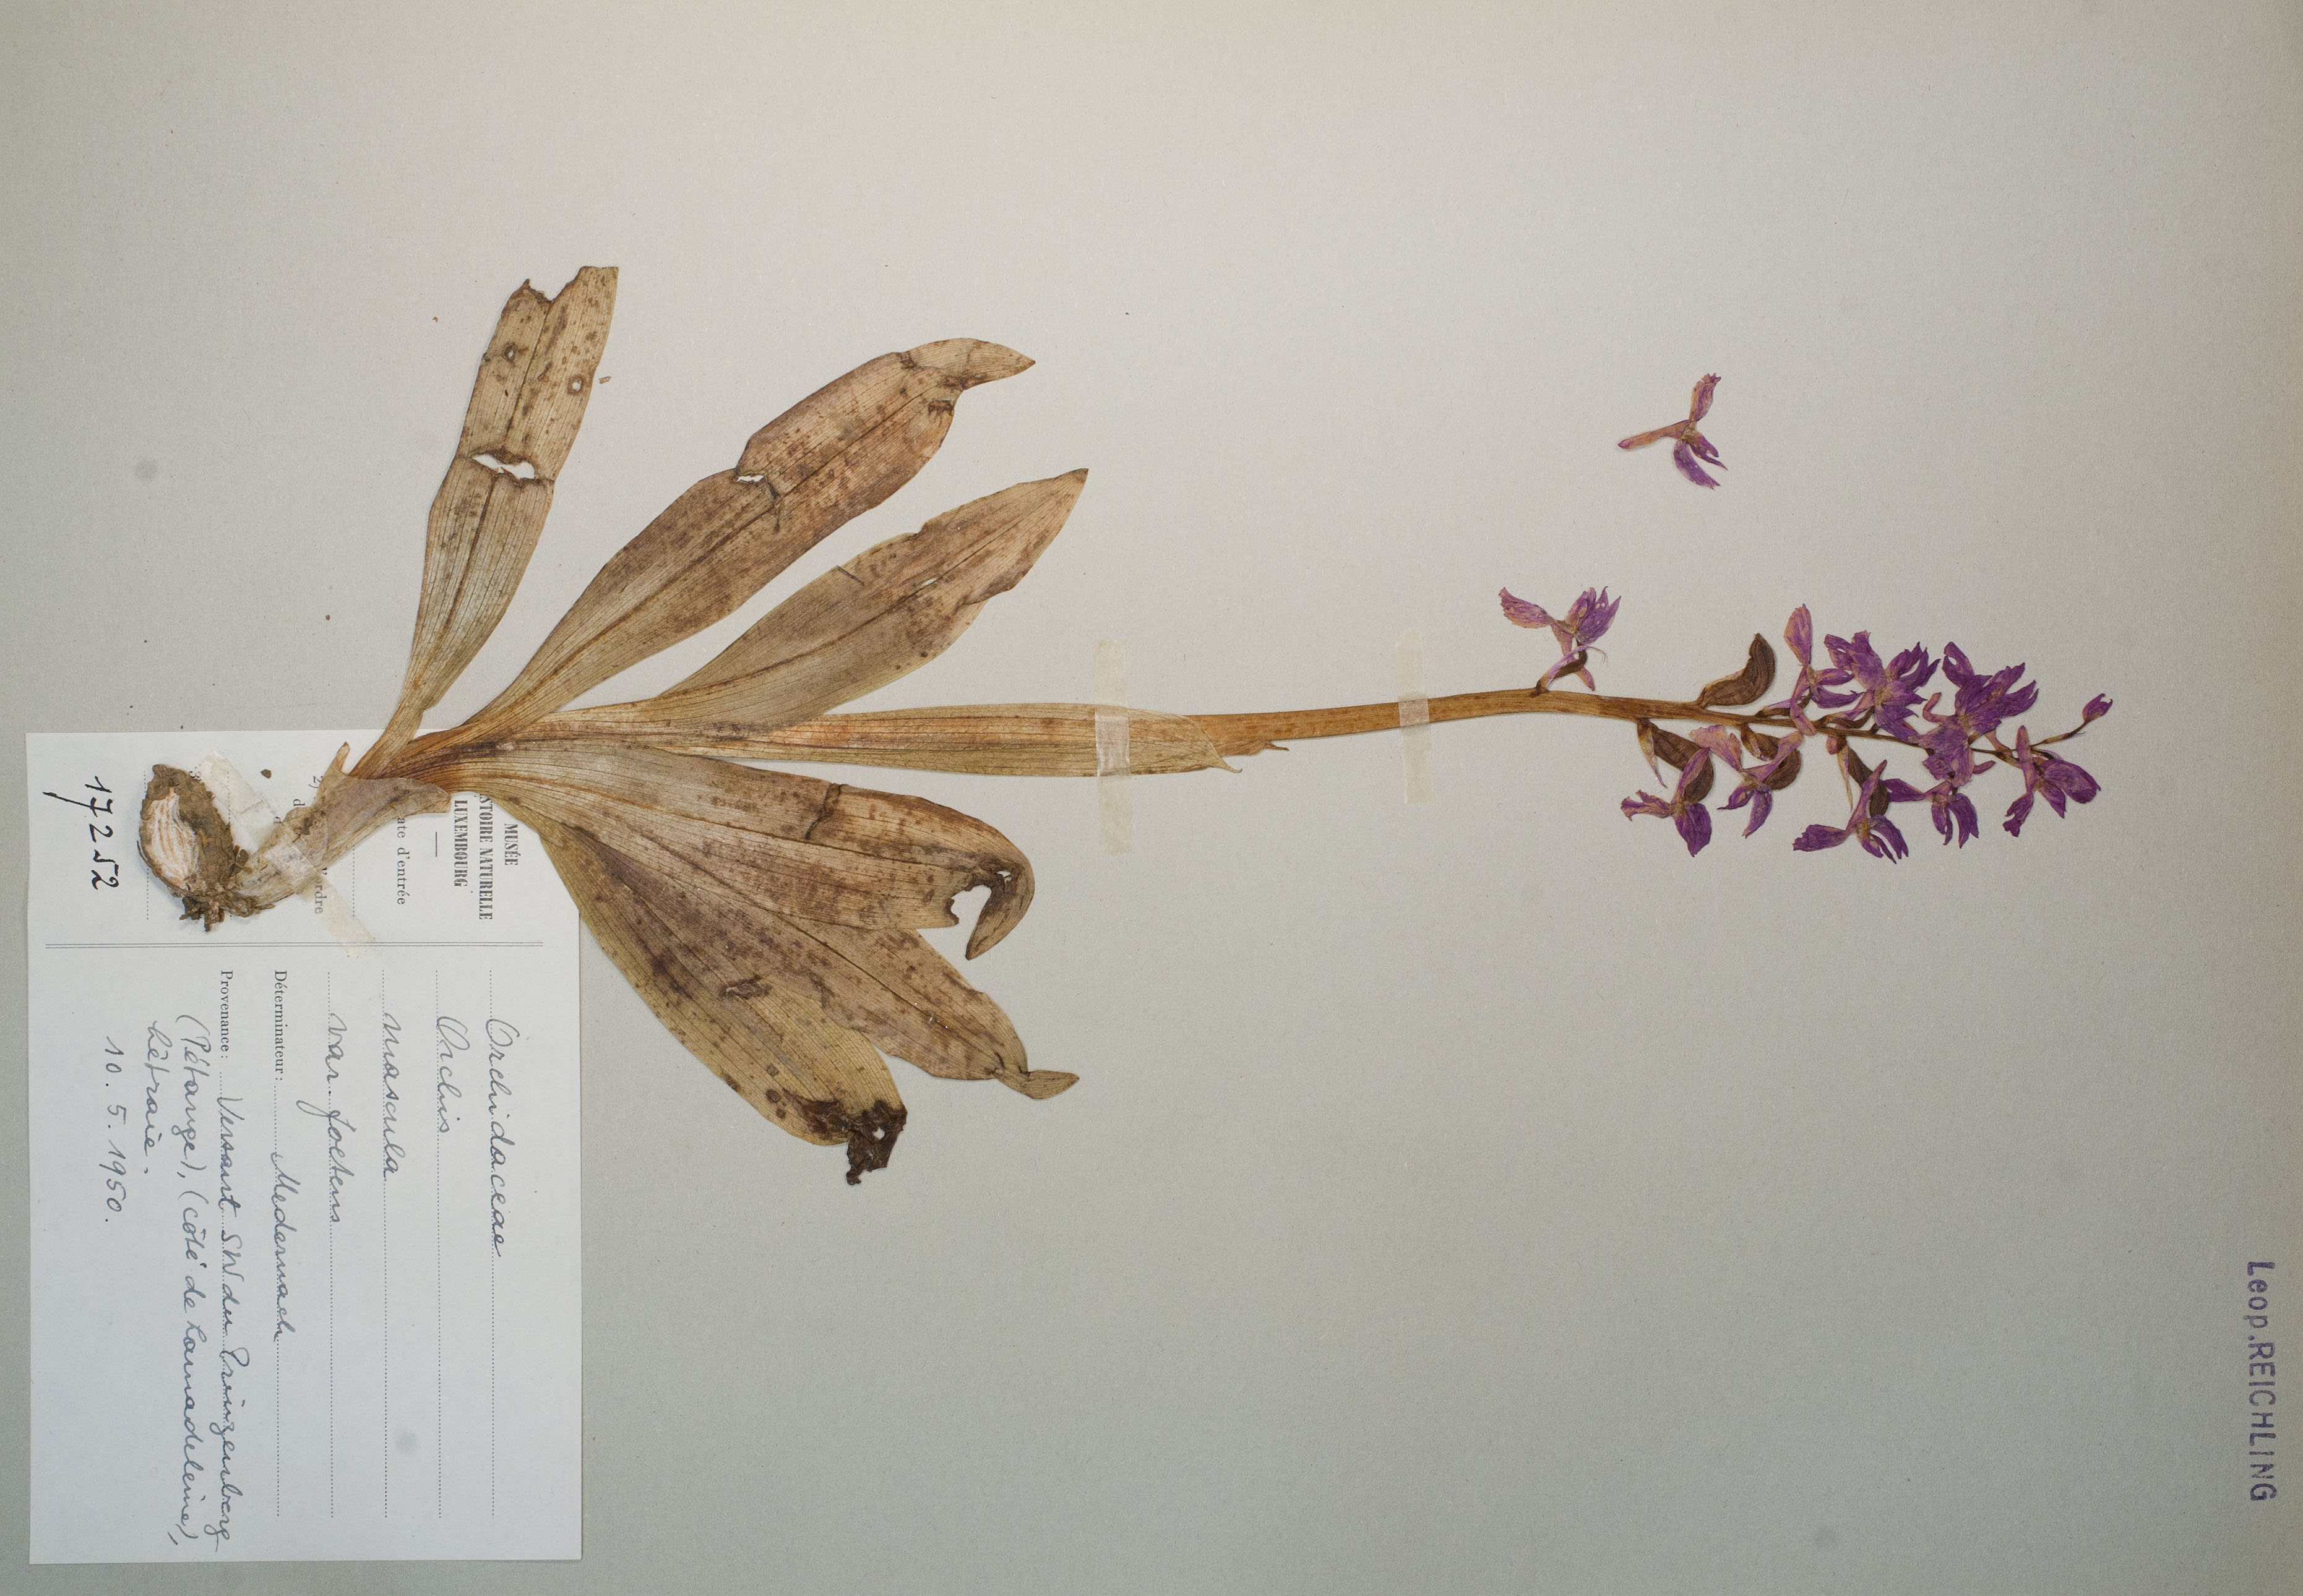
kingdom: Plantae
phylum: Tracheophyta
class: Liliopsida
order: Asparagales
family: Orchidaceae
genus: Orchis
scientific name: Orchis mascula
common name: Early-purple orchid
